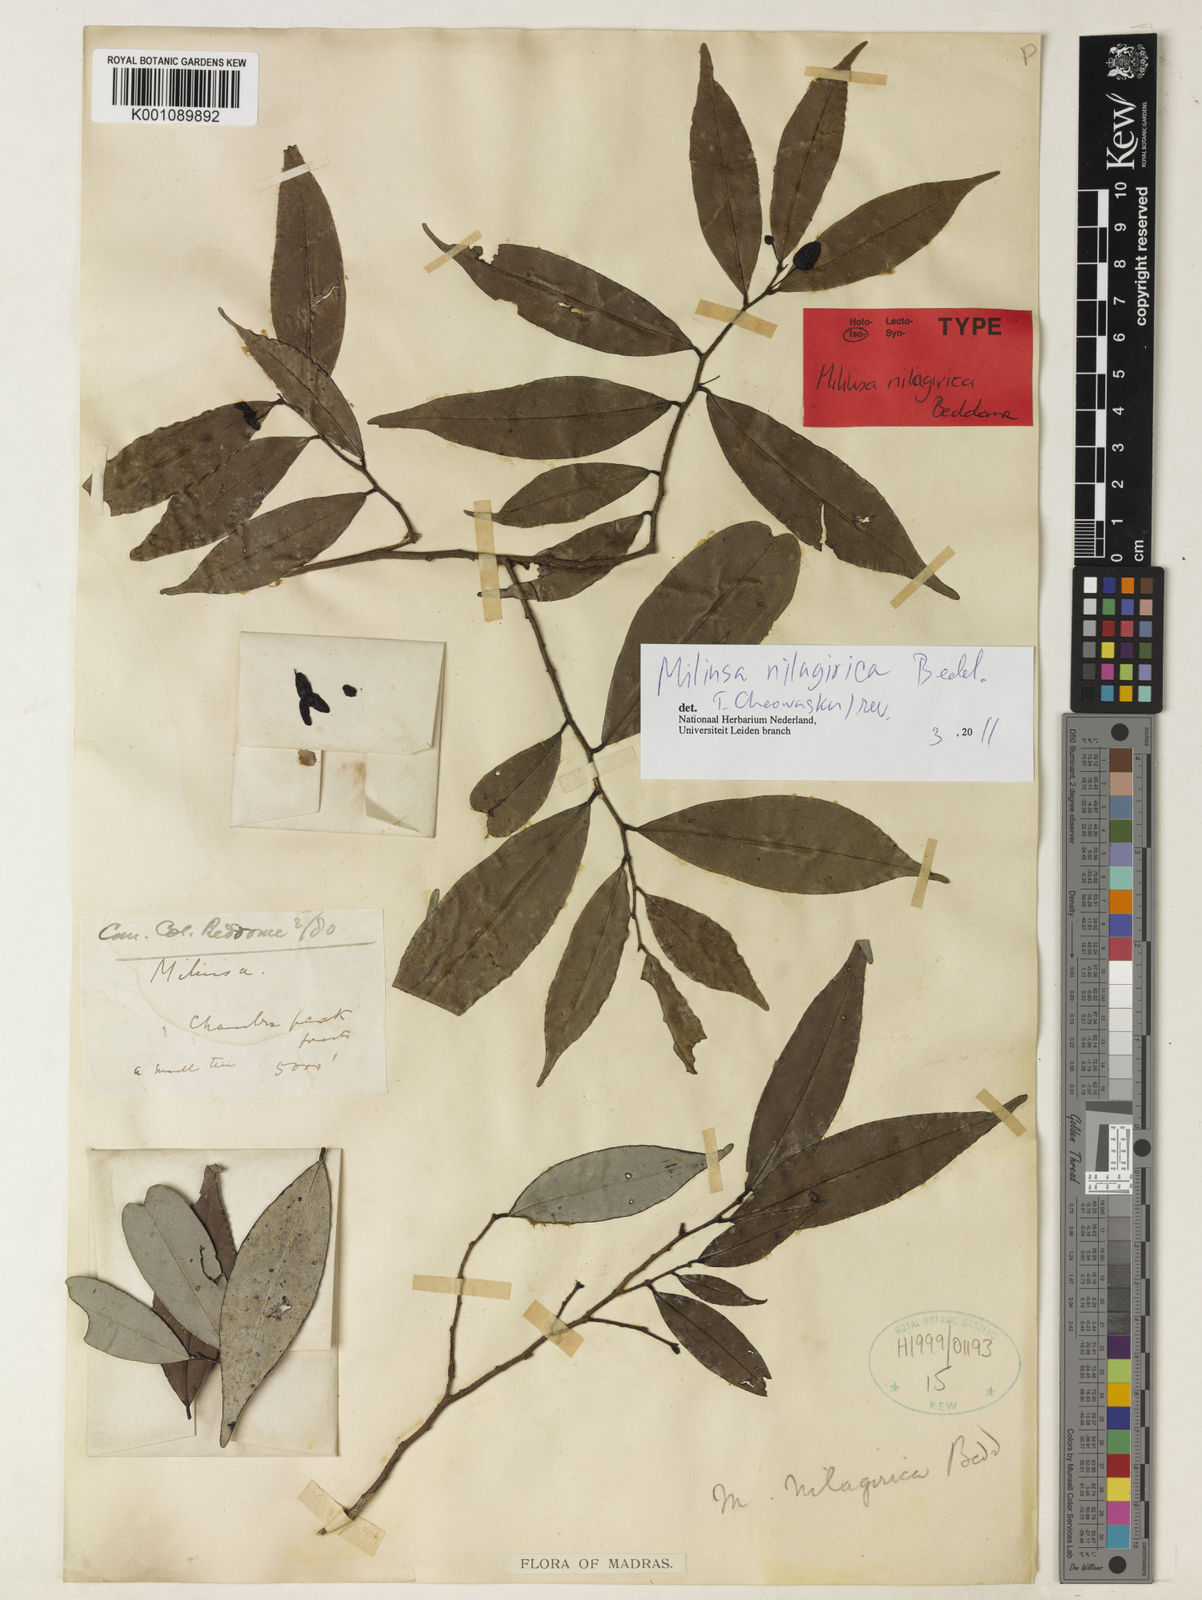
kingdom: Plantae
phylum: Tracheophyta
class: Magnoliopsida
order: Magnoliales
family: Annonaceae
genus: Miliusa
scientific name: Miliusa nilagirica
